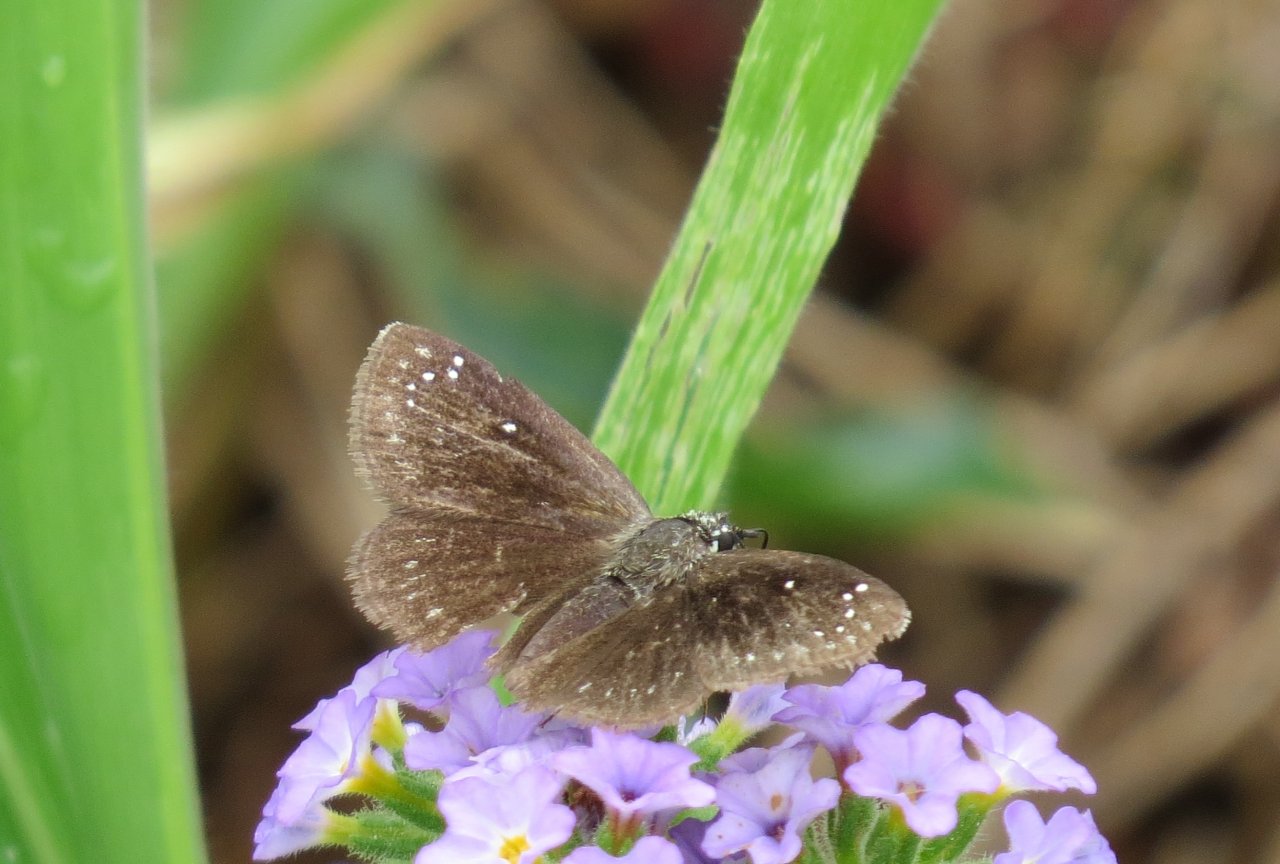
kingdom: Animalia
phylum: Arthropoda
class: Insecta
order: Lepidoptera
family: Hesperiidae
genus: Pholisora
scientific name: Pholisora catullus
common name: Common Sootywing
